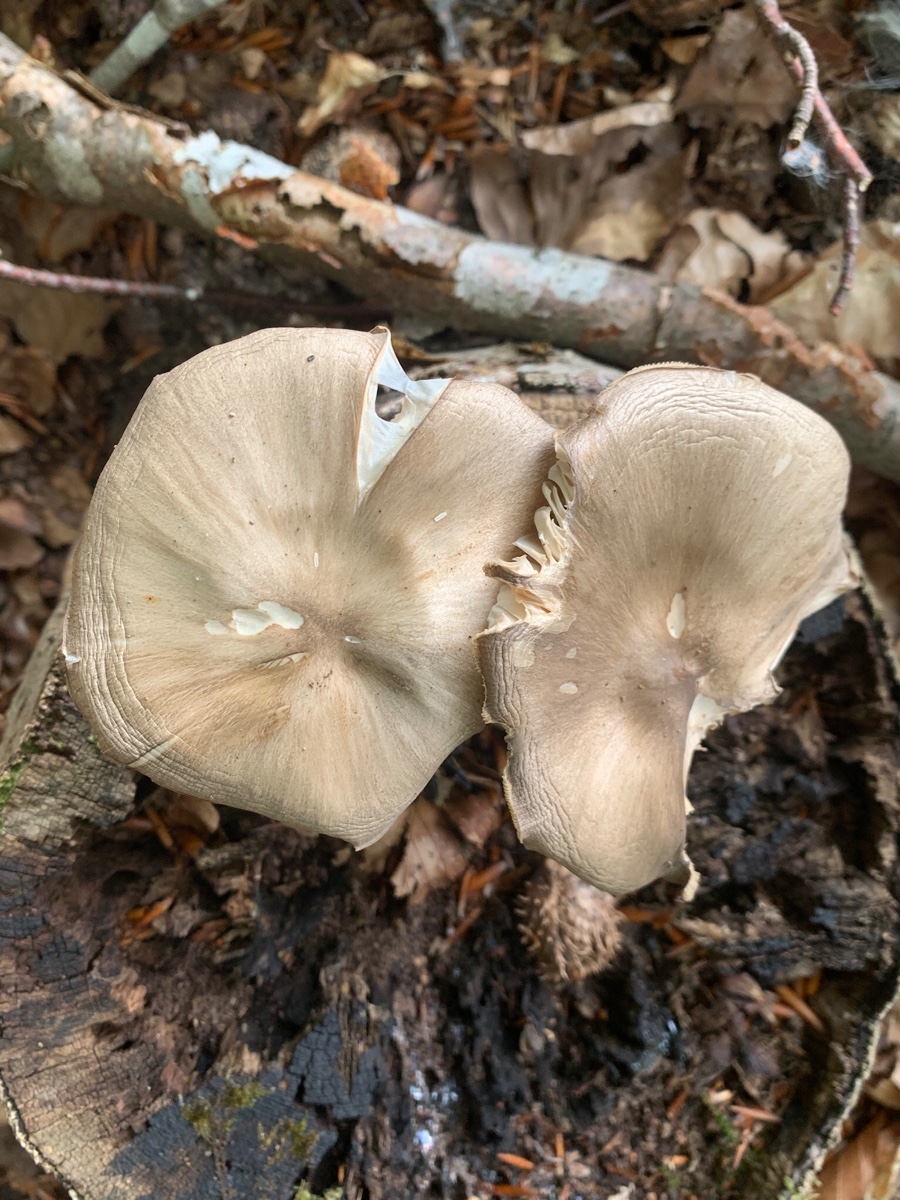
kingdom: Fungi
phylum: Basidiomycota
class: Agaricomycetes
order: Agaricales
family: Tricholomataceae
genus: Megacollybia
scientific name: Megacollybia platyphylla
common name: bredbladet væbnerhat
